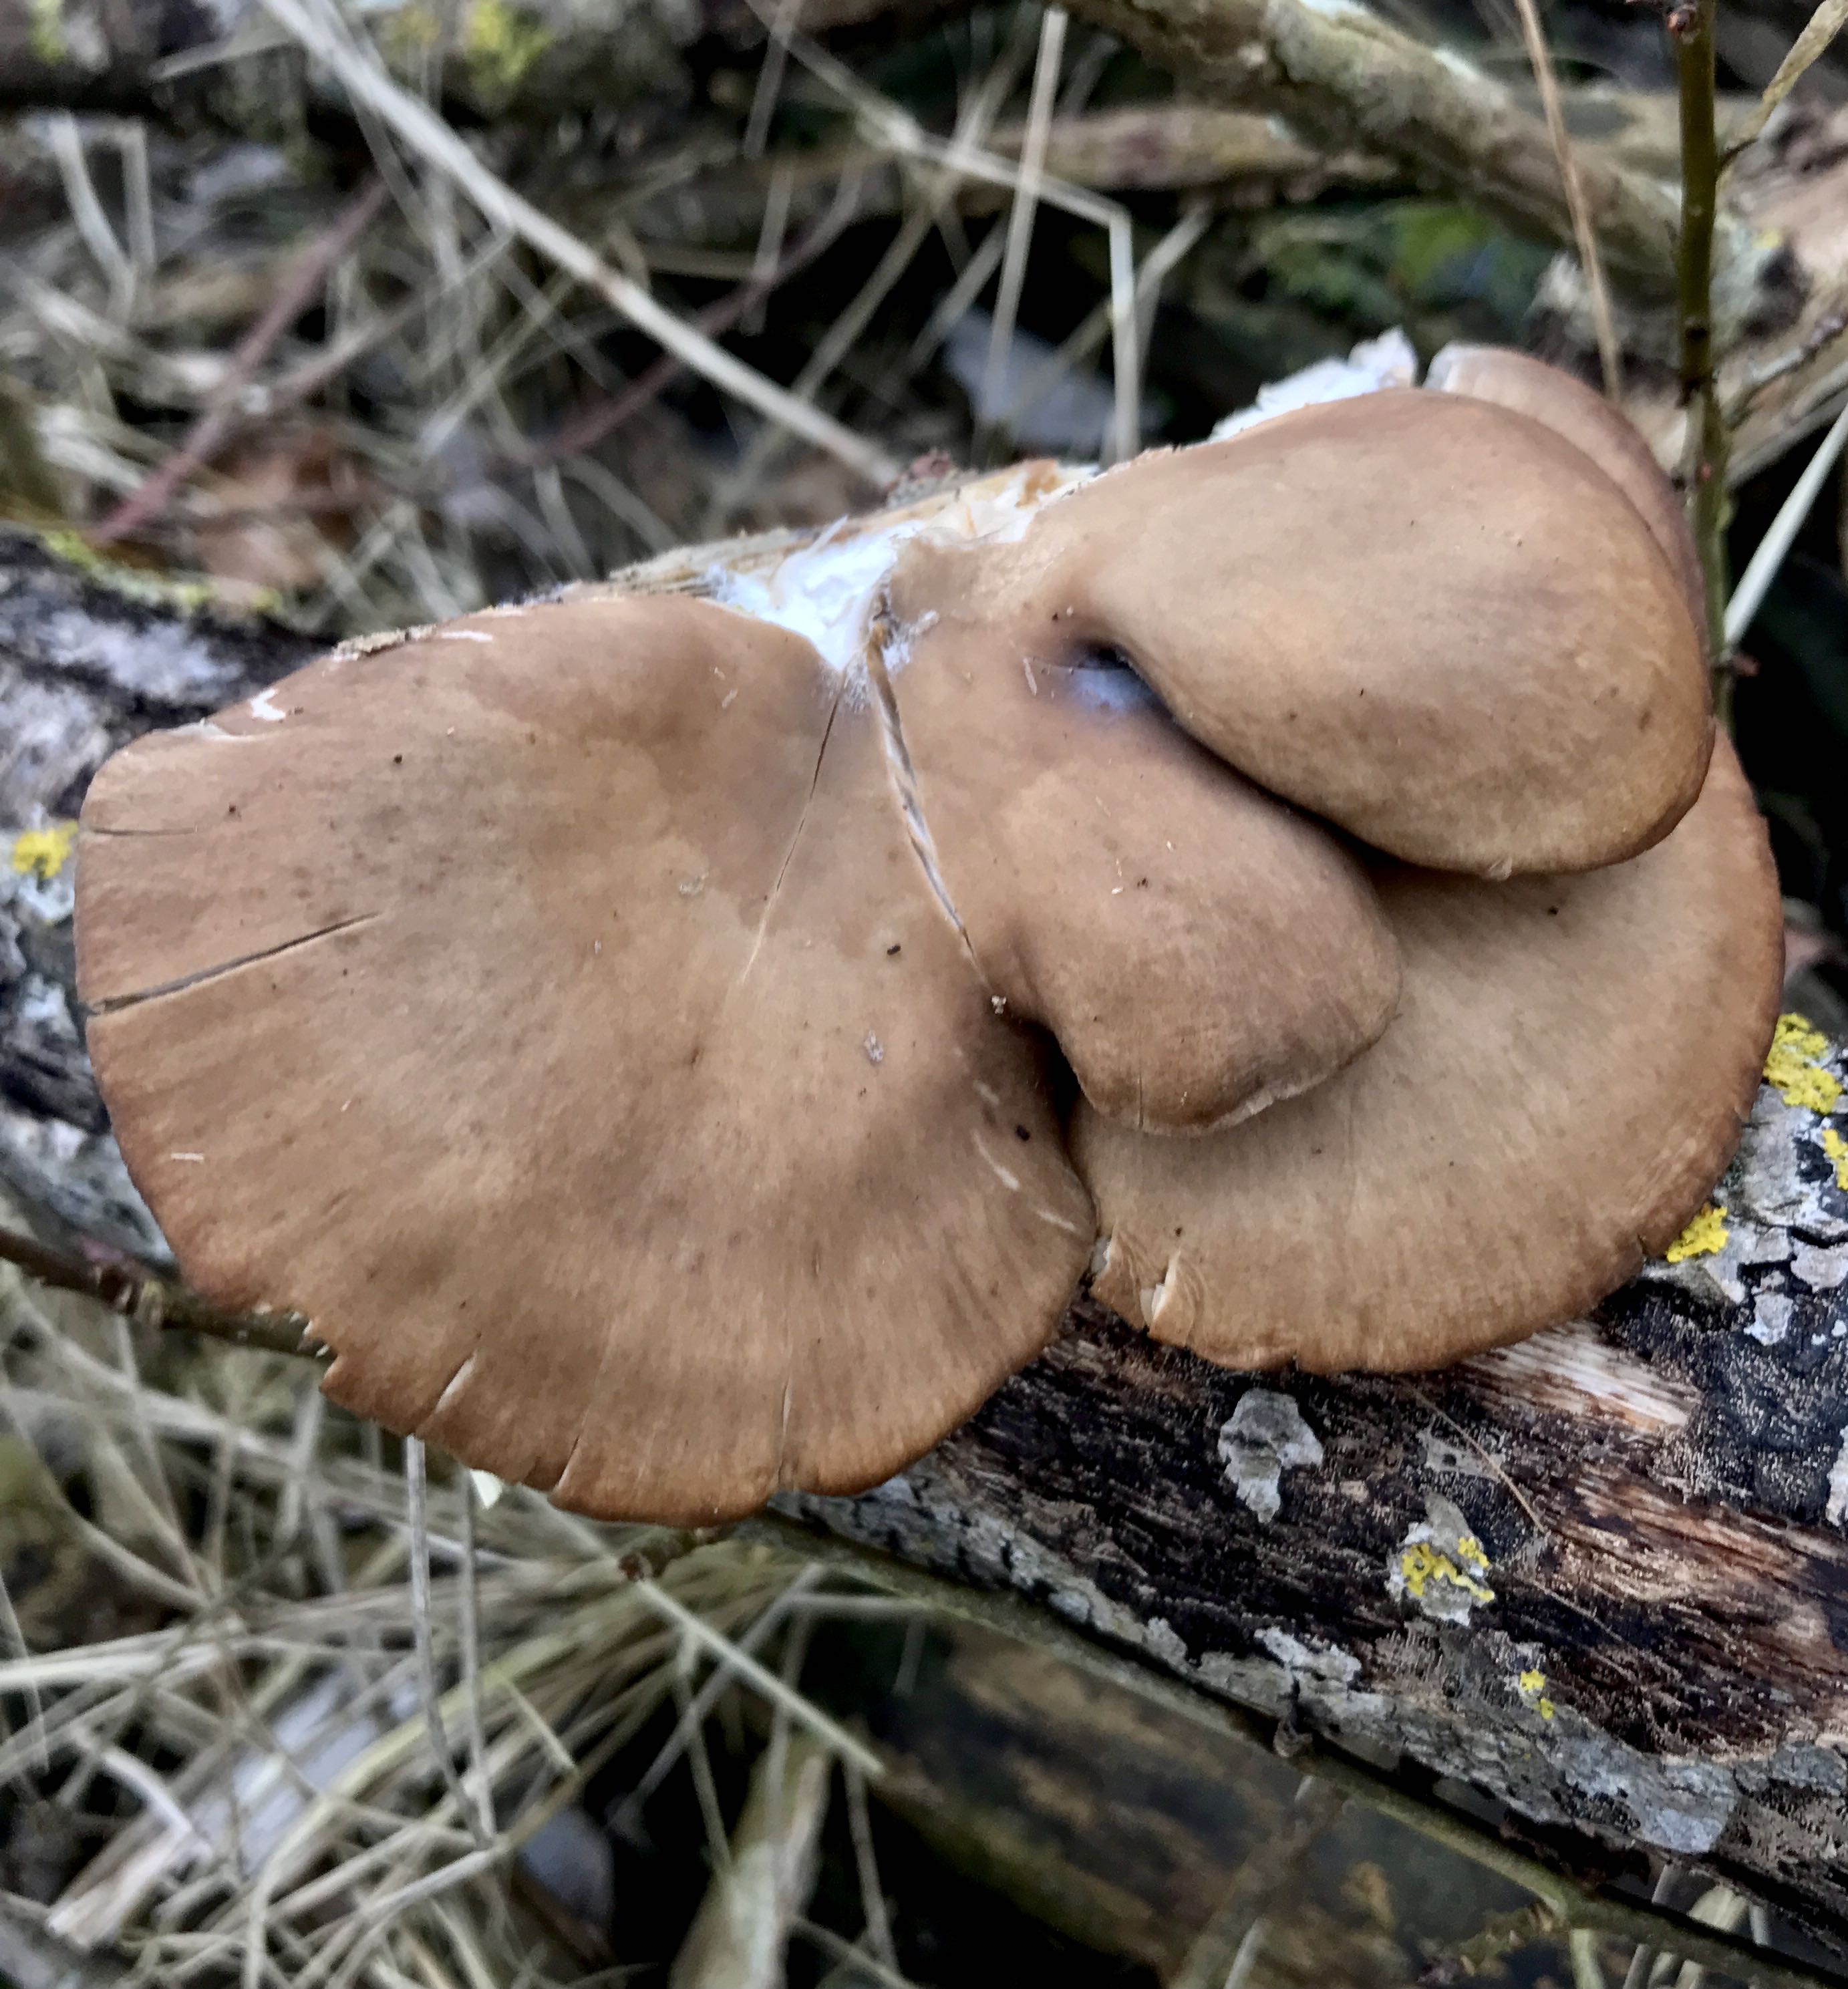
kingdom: Fungi
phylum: Basidiomycota
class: Agaricomycetes
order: Agaricales
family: Pleurotaceae
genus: Pleurotus
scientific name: Pleurotus ostreatus
